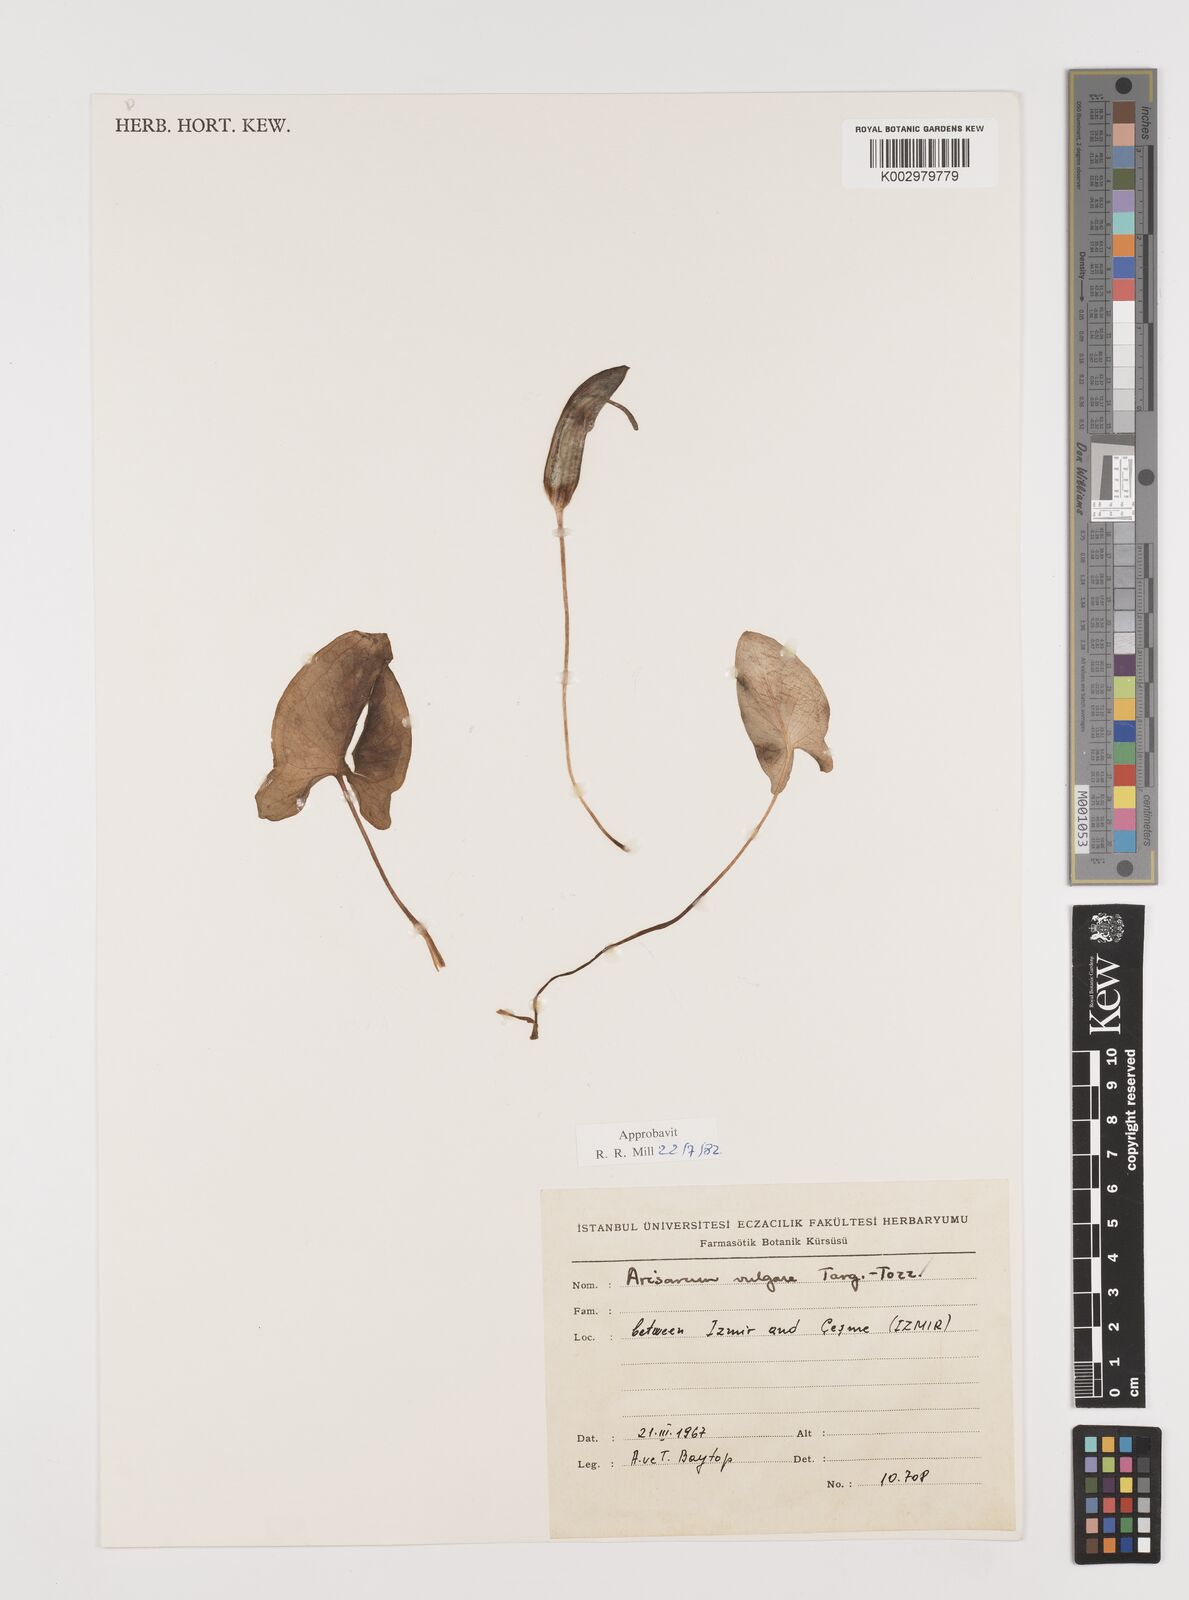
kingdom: Plantae
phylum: Tracheophyta
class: Liliopsida
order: Alismatales
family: Araceae
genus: Arisarum
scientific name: Arisarum vulgare
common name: Common arisarum
